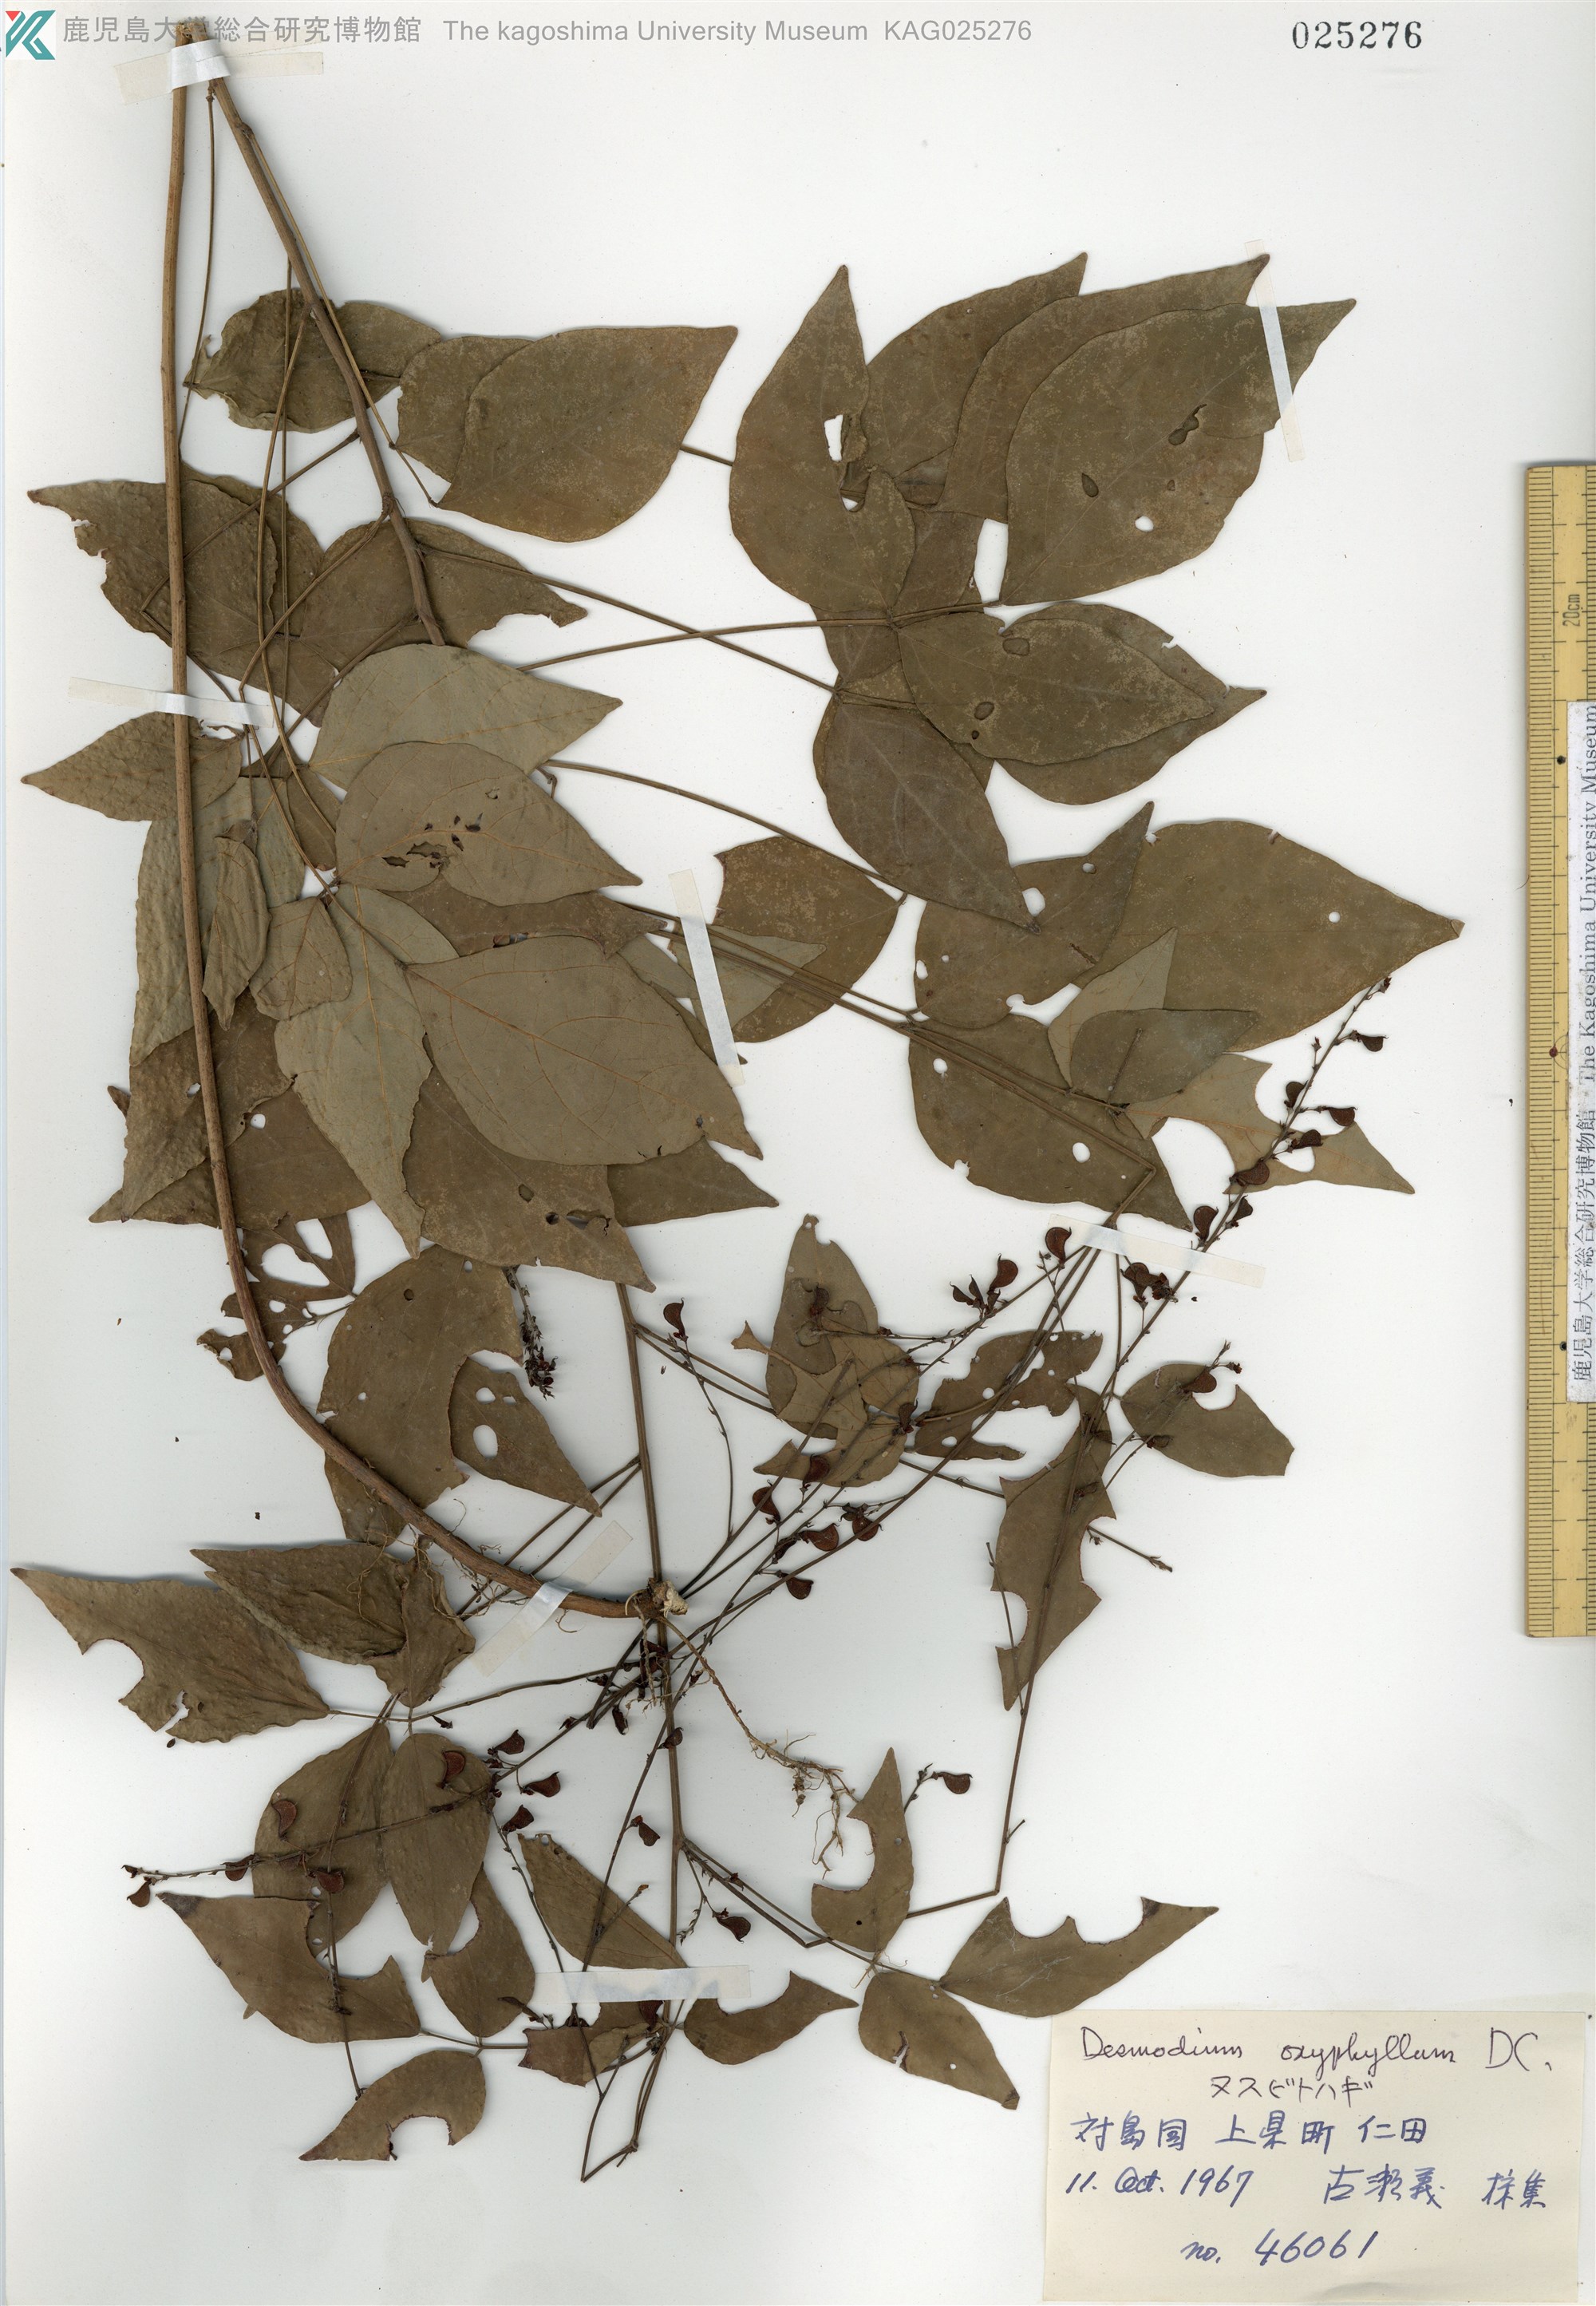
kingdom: Plantae
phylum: Tracheophyta
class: Magnoliopsida
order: Fabales
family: Fabaceae
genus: Hylodesmum
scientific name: Hylodesmum podocarpum
